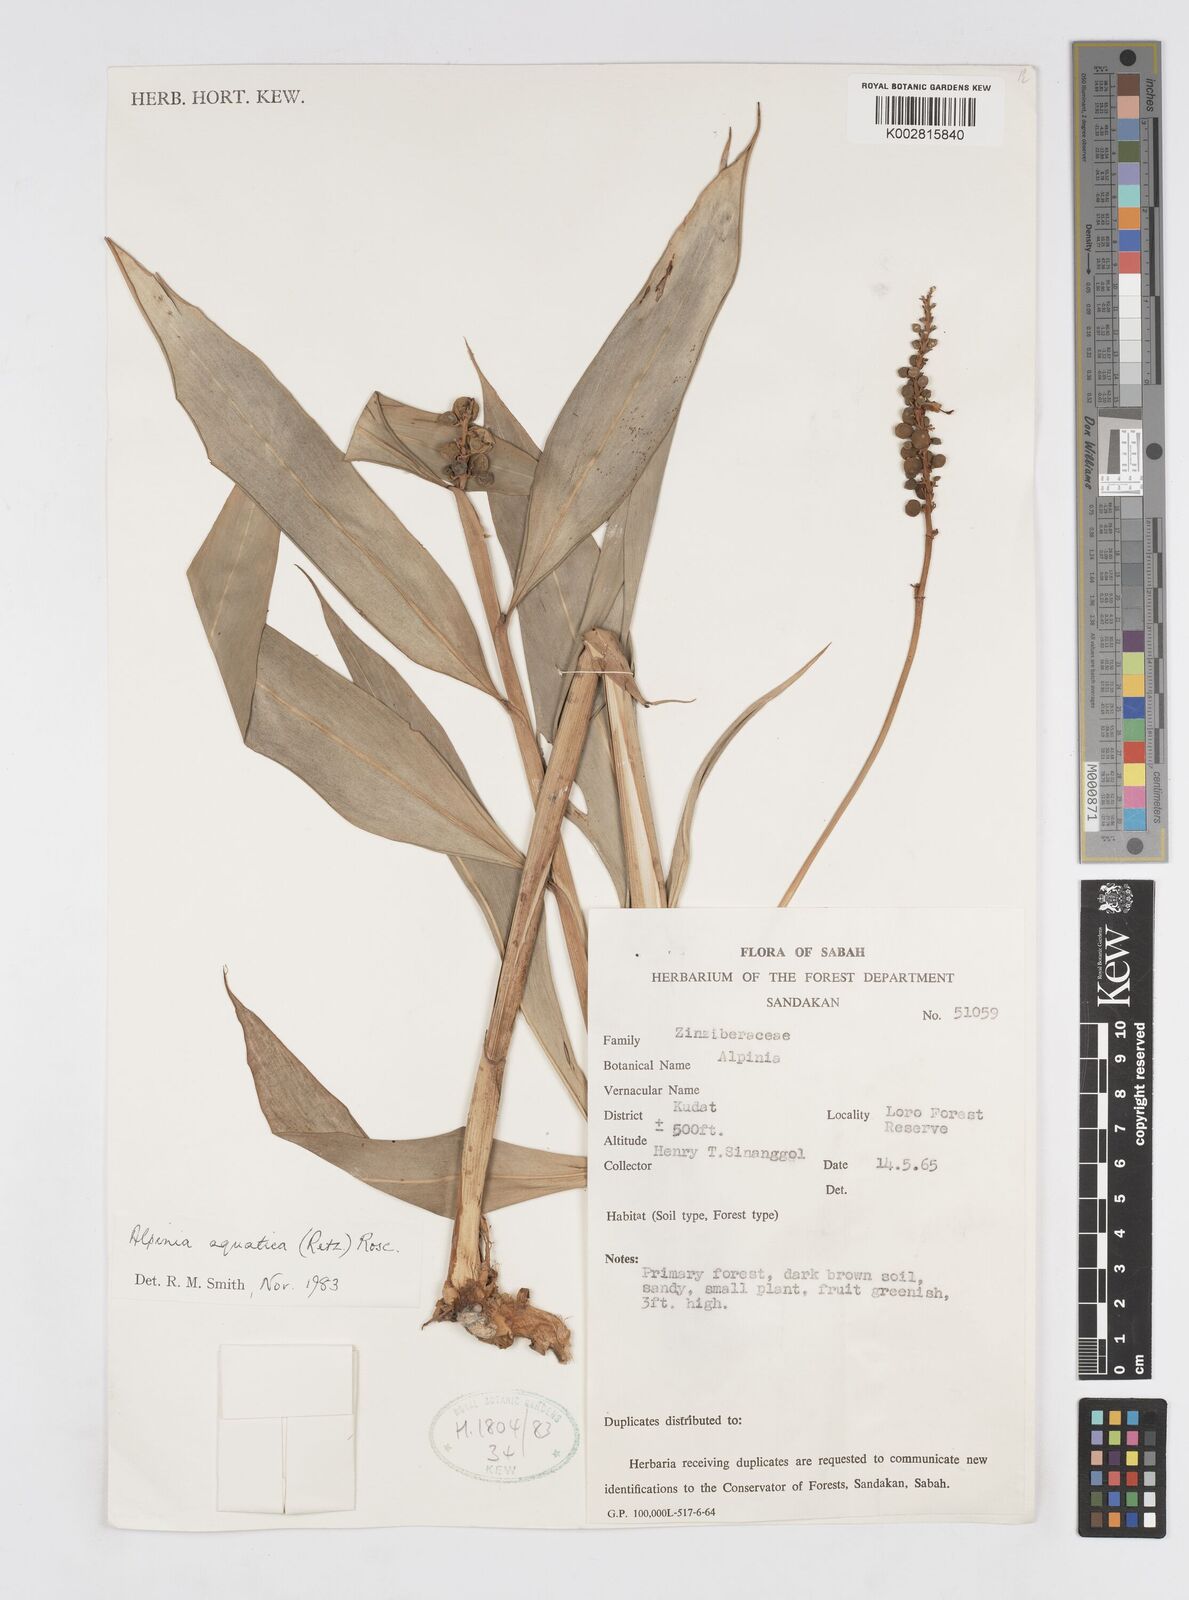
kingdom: Plantae
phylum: Tracheophyta
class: Liliopsida
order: Zingiberales
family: Zingiberaceae
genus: Alpinia
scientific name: Alpinia aquatica
